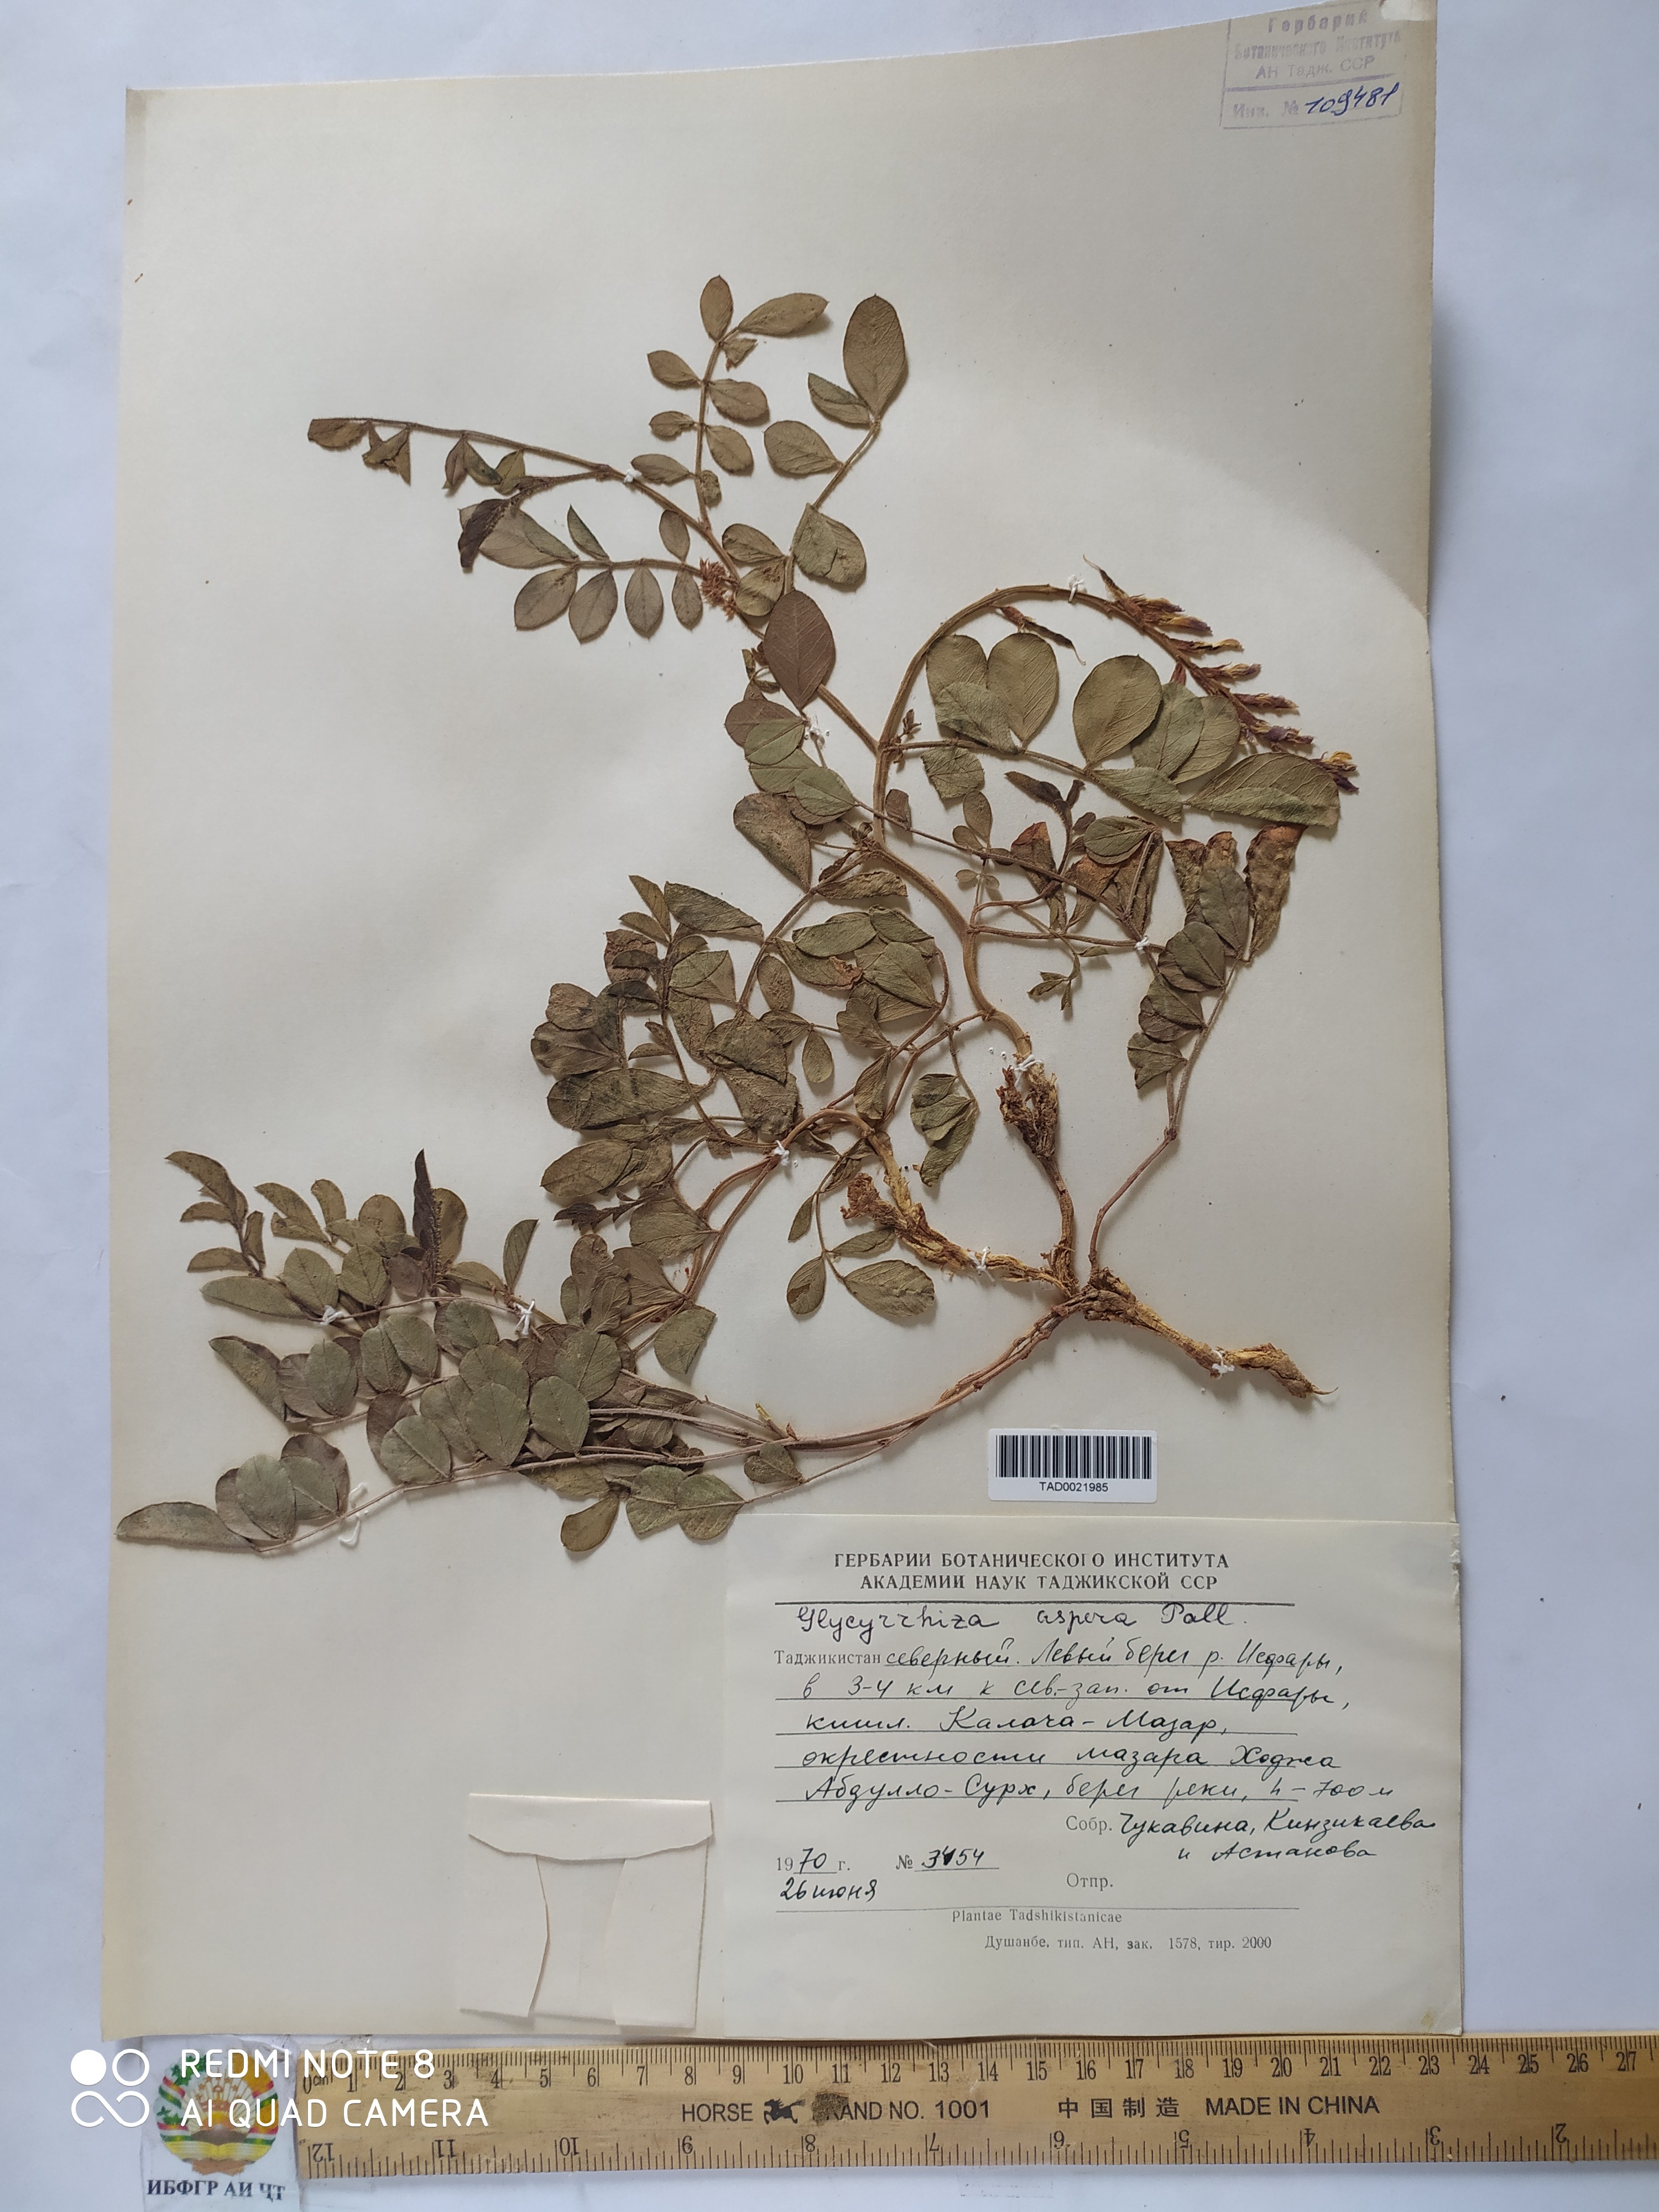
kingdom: Plantae
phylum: Tracheophyta
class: Magnoliopsida
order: Fabales
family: Fabaceae
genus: Glycyrrhiza
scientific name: Glycyrrhiza glabra
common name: Liquorice
